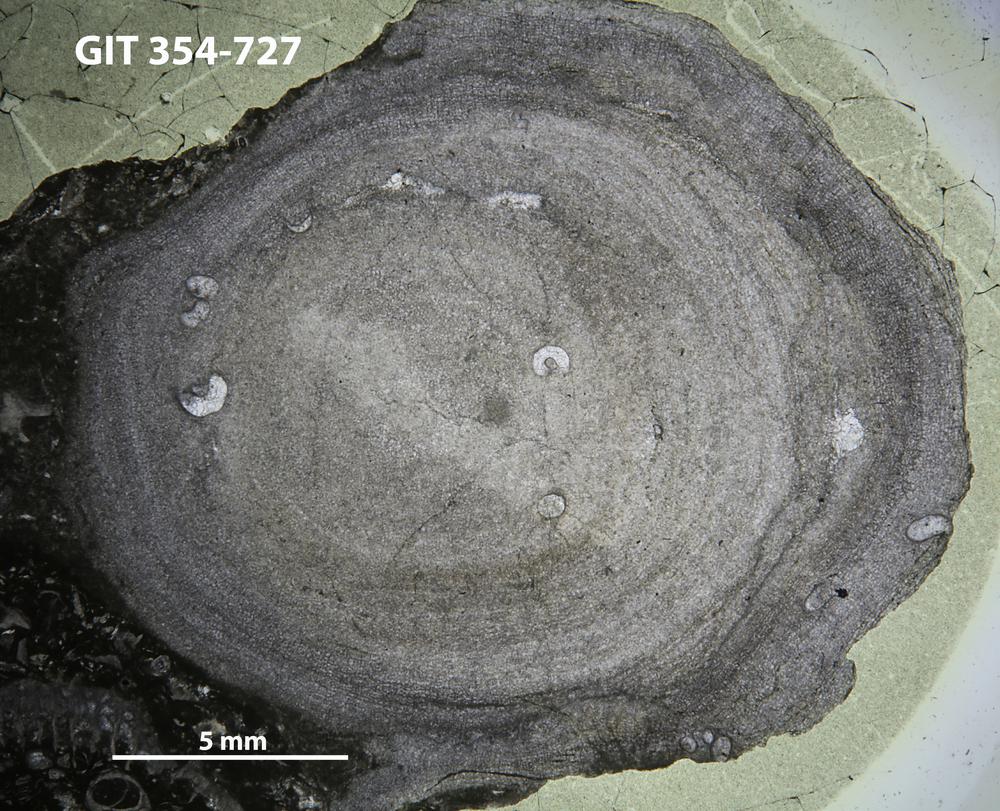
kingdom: Animalia
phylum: Porifera
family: Actinostromatidae
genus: Plectostroma
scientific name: Plectostroma
